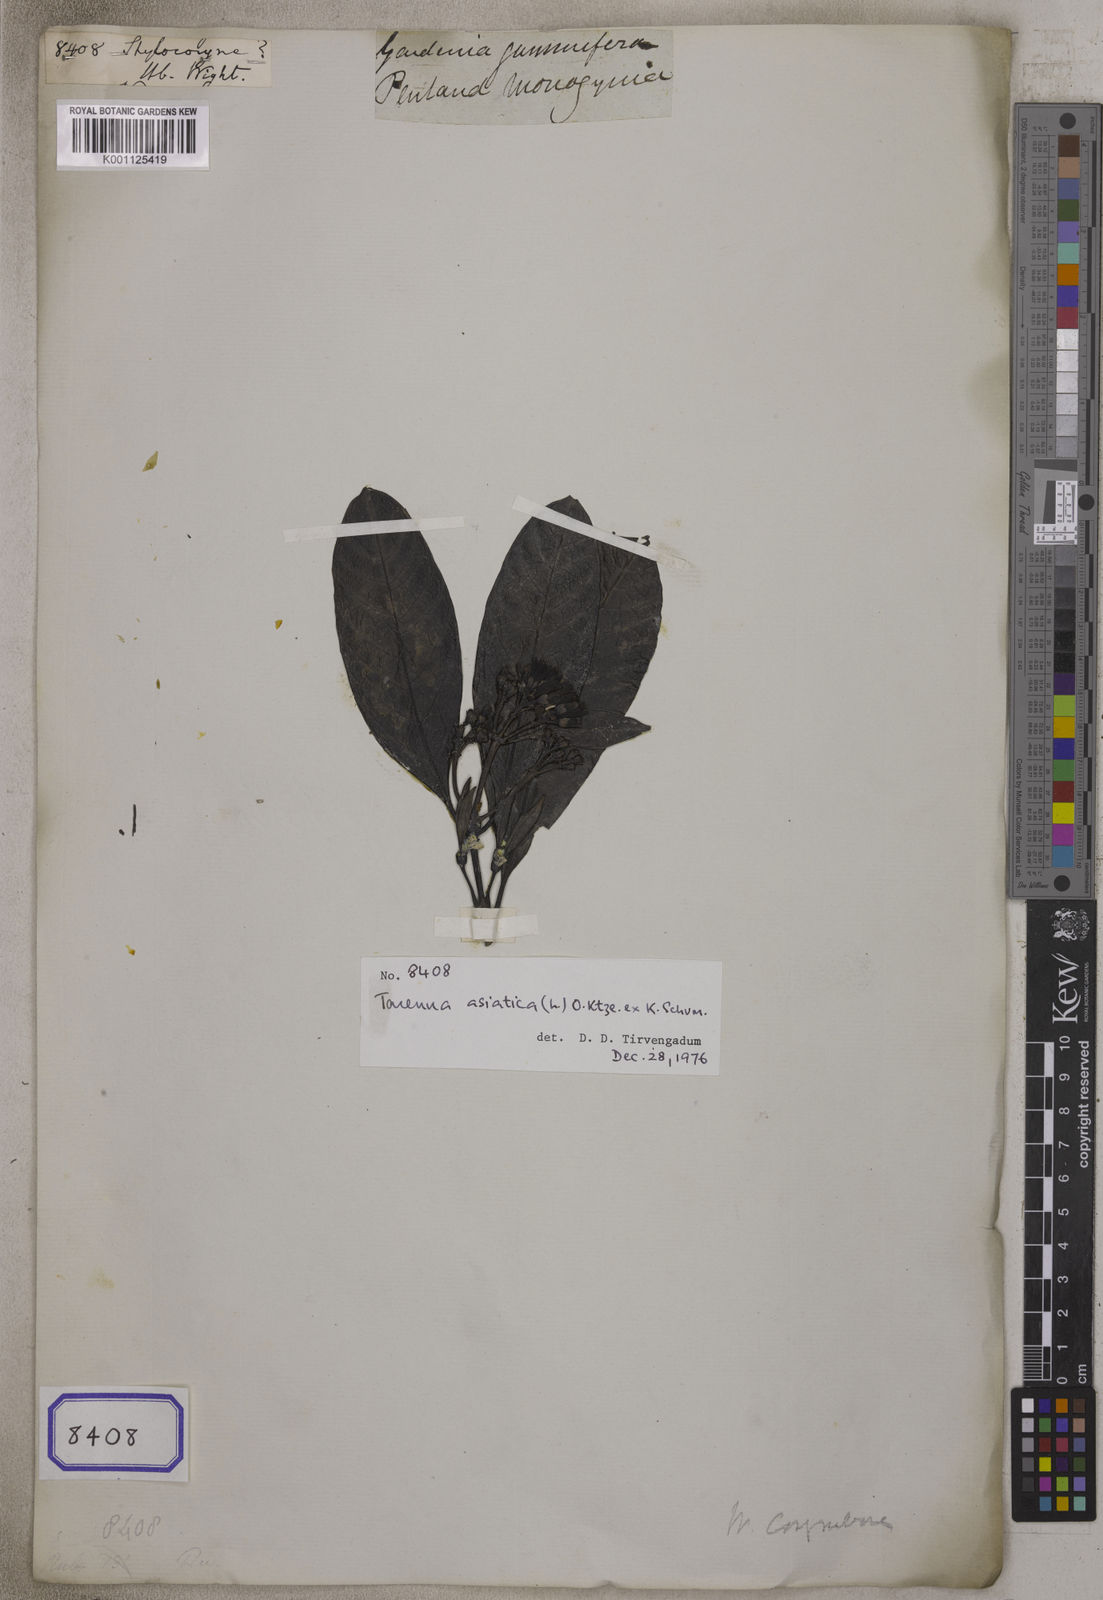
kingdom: Plantae
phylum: Tracheophyta
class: Magnoliopsida
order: Gentianales
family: Rubiaceae
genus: Aidia
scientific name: Aidia
